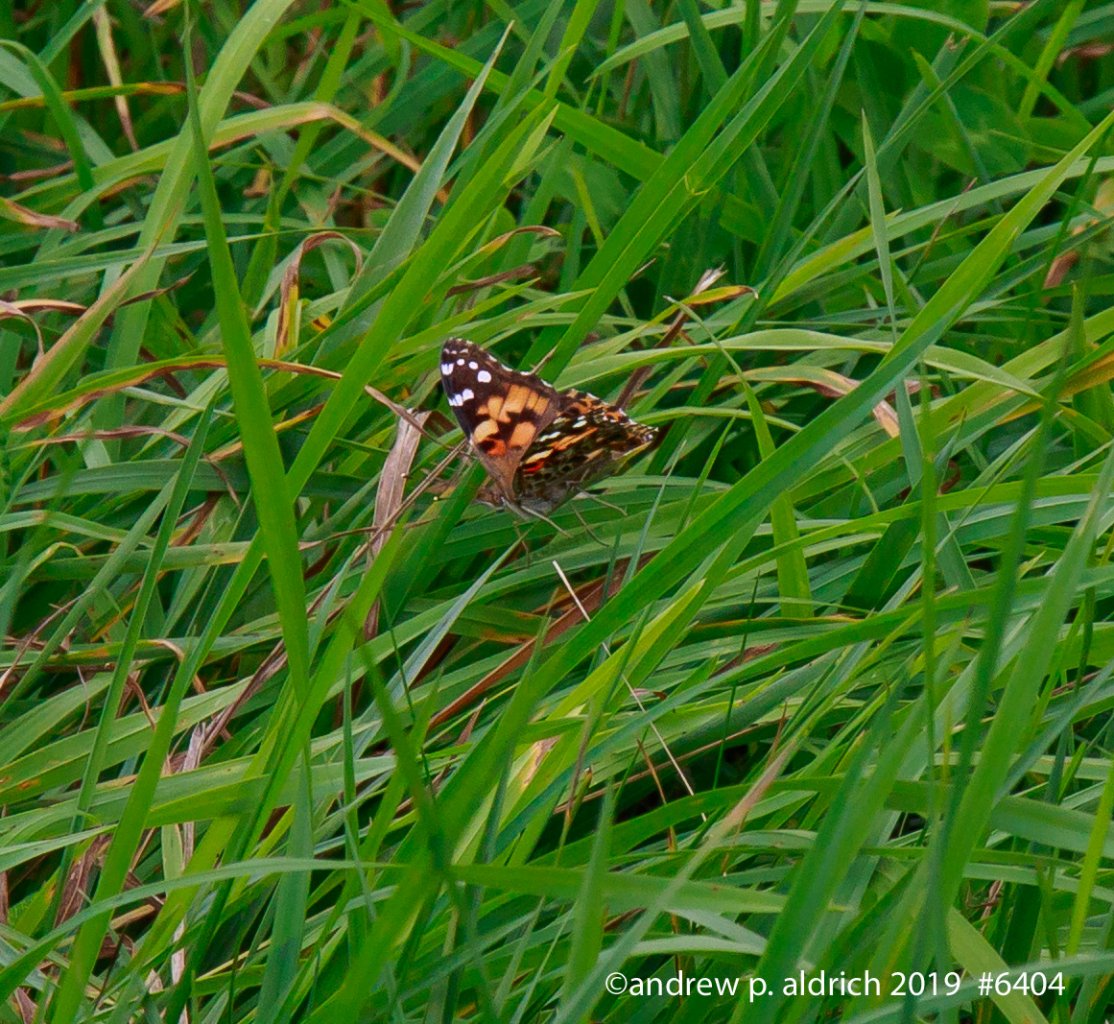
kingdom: Animalia
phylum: Arthropoda
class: Insecta
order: Lepidoptera
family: Nymphalidae
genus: Vanessa
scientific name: Vanessa cardui
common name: Painted Lady
